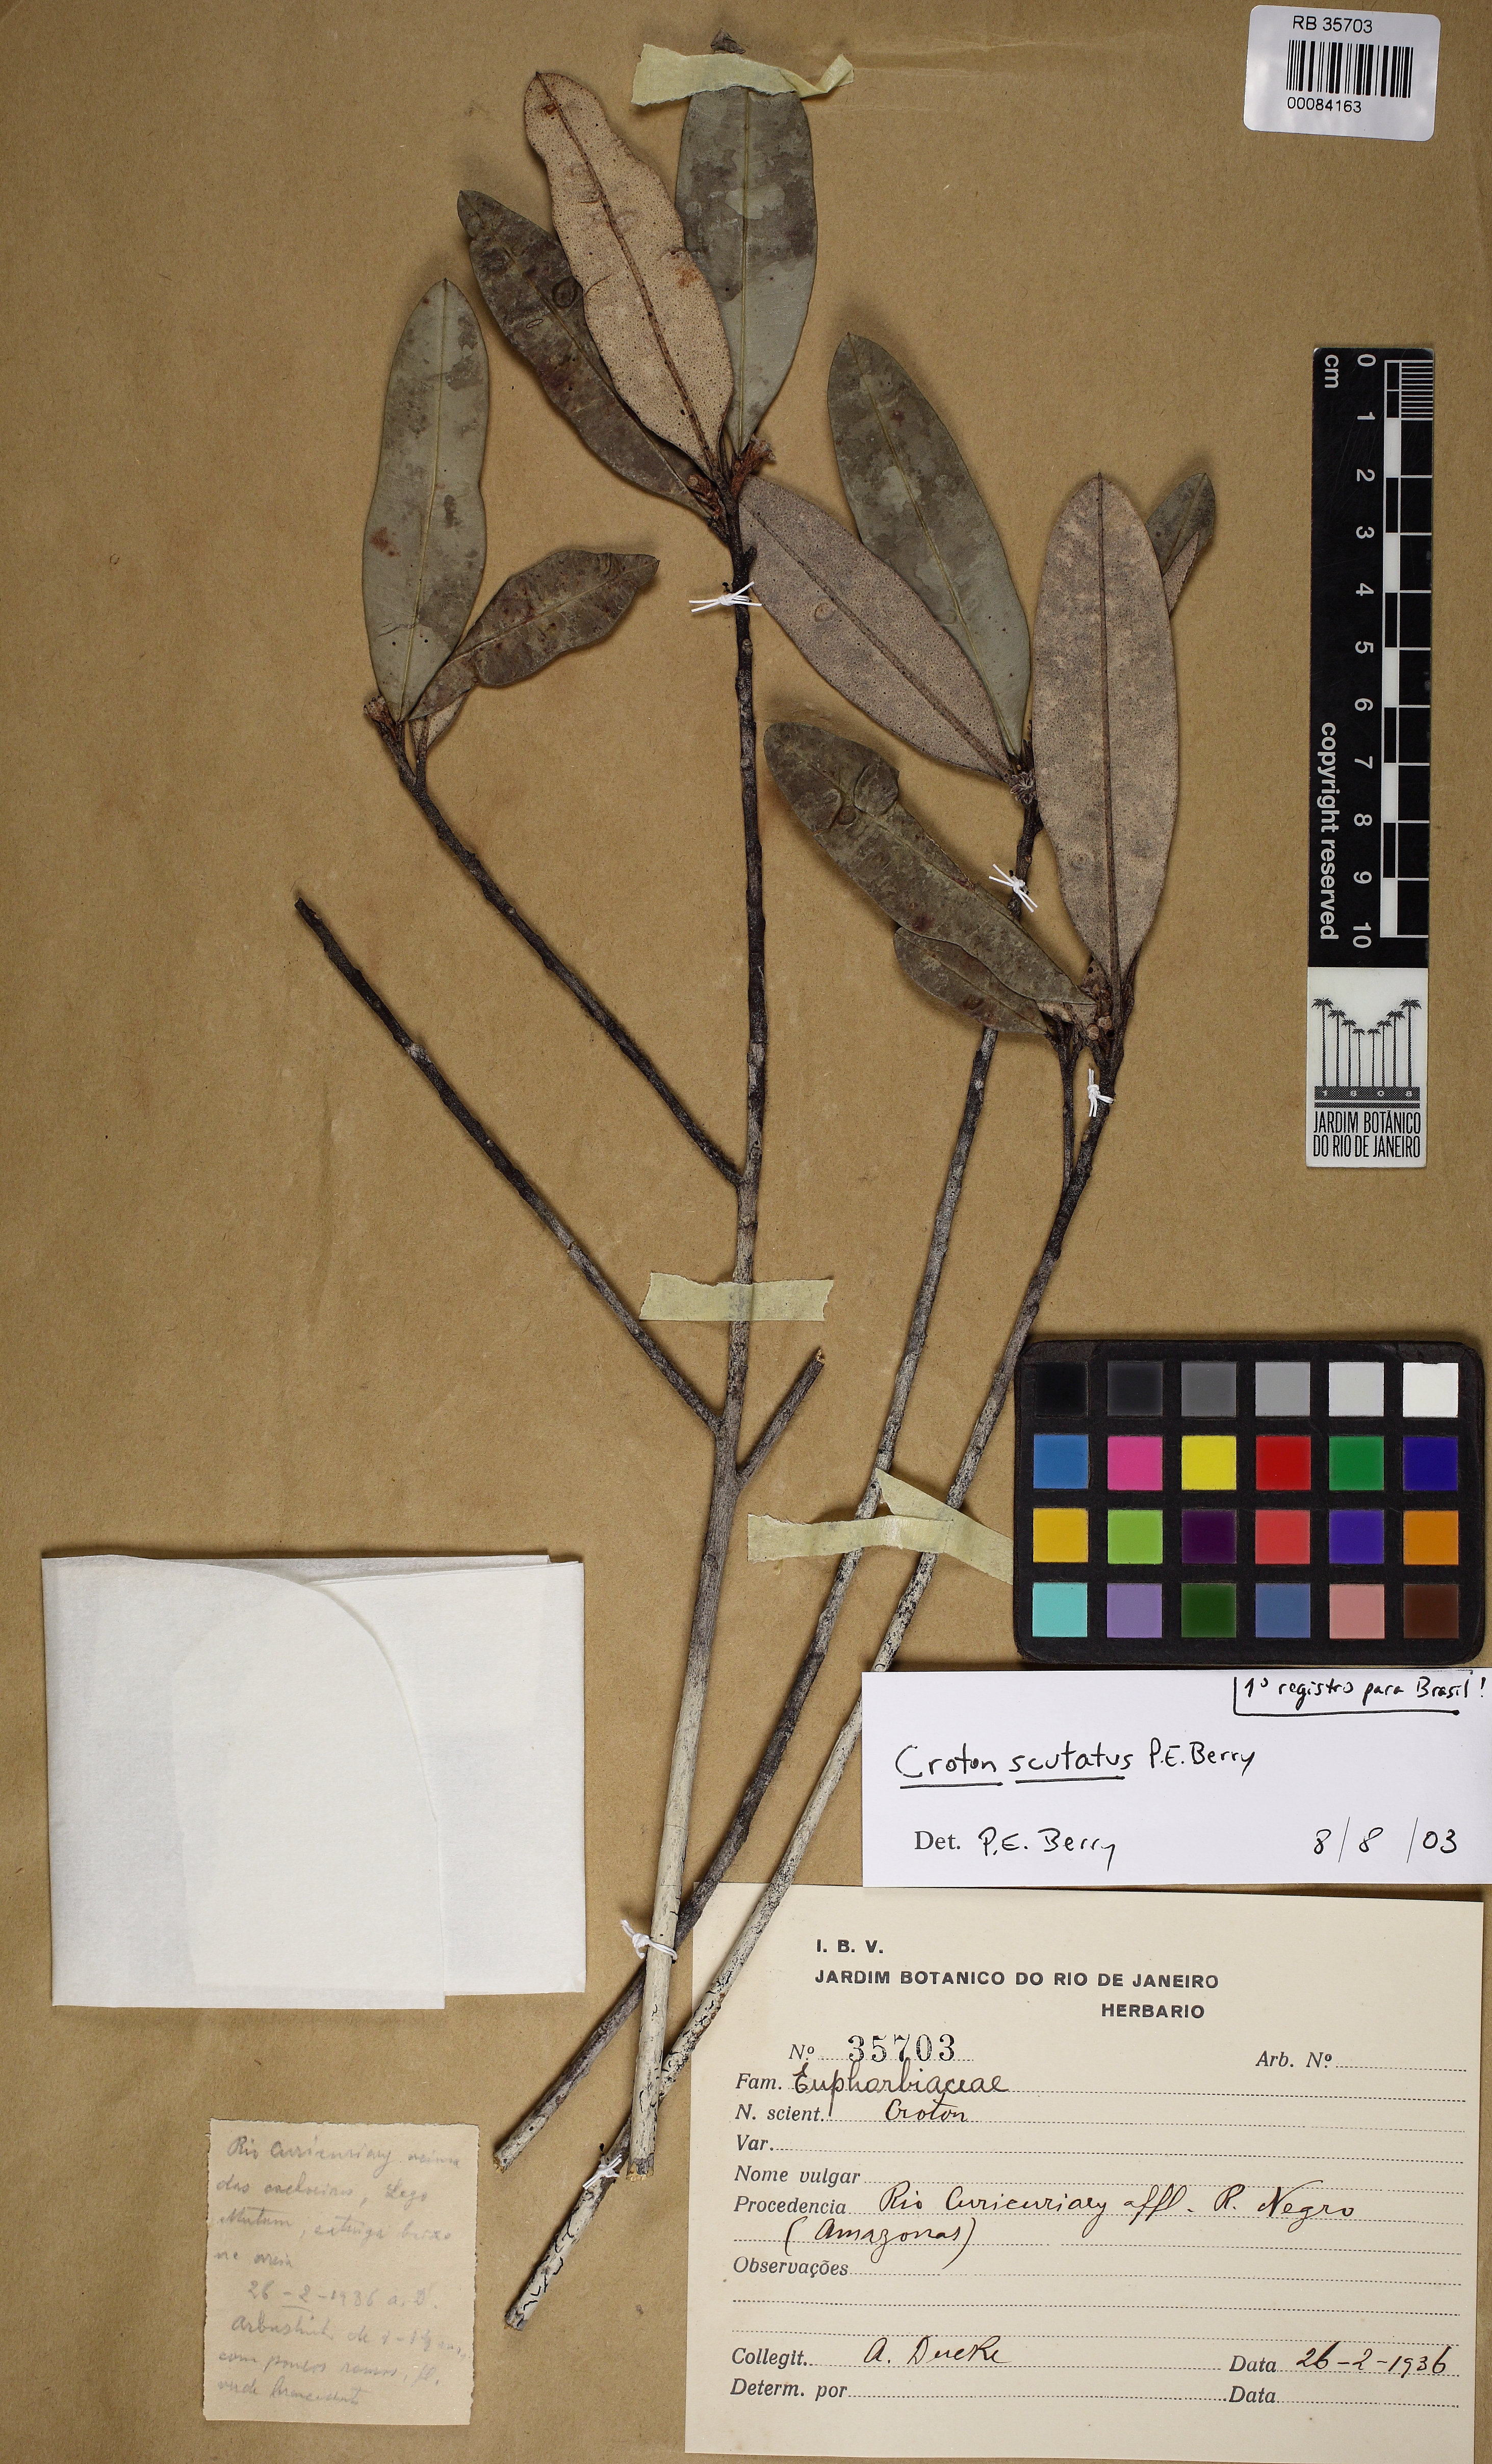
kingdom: Plantae
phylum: Tracheophyta
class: Magnoliopsida
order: Malpighiales
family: Euphorbiaceae
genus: Croton
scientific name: Croton scutatus
